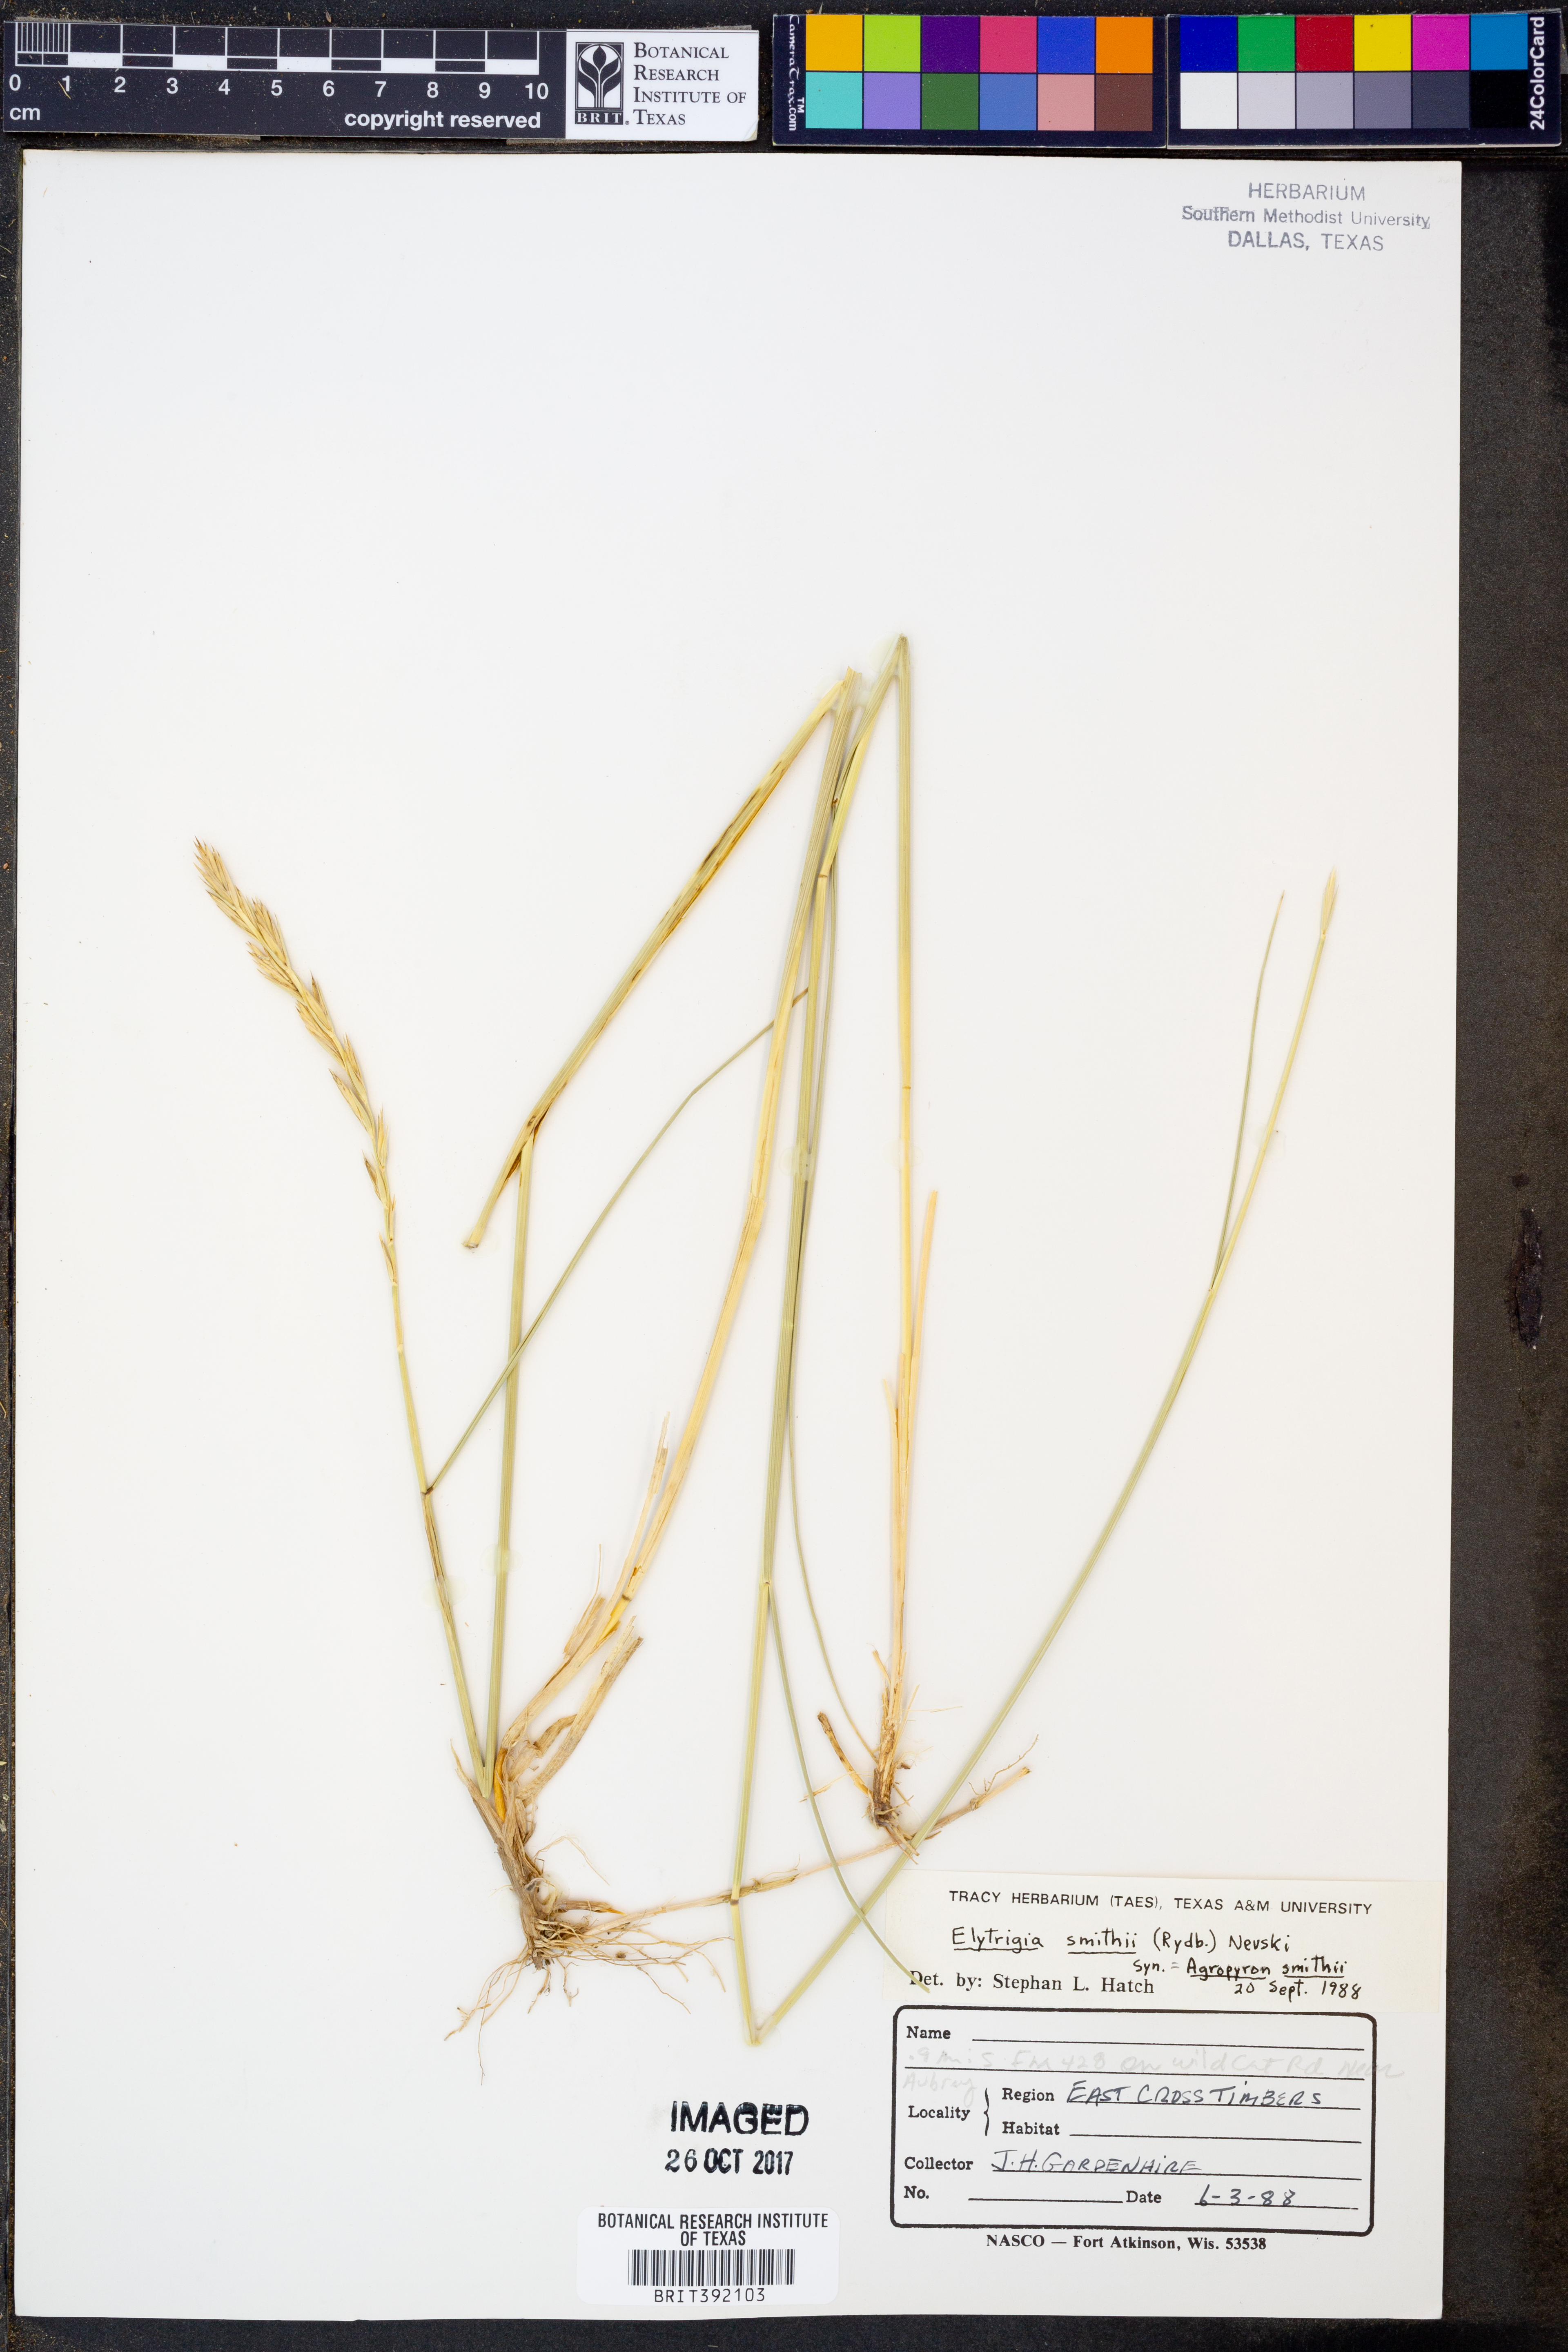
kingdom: Plantae
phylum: Tracheophyta
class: Liliopsida
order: Poales
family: Poaceae
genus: Elymus
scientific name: Elymus smithii
